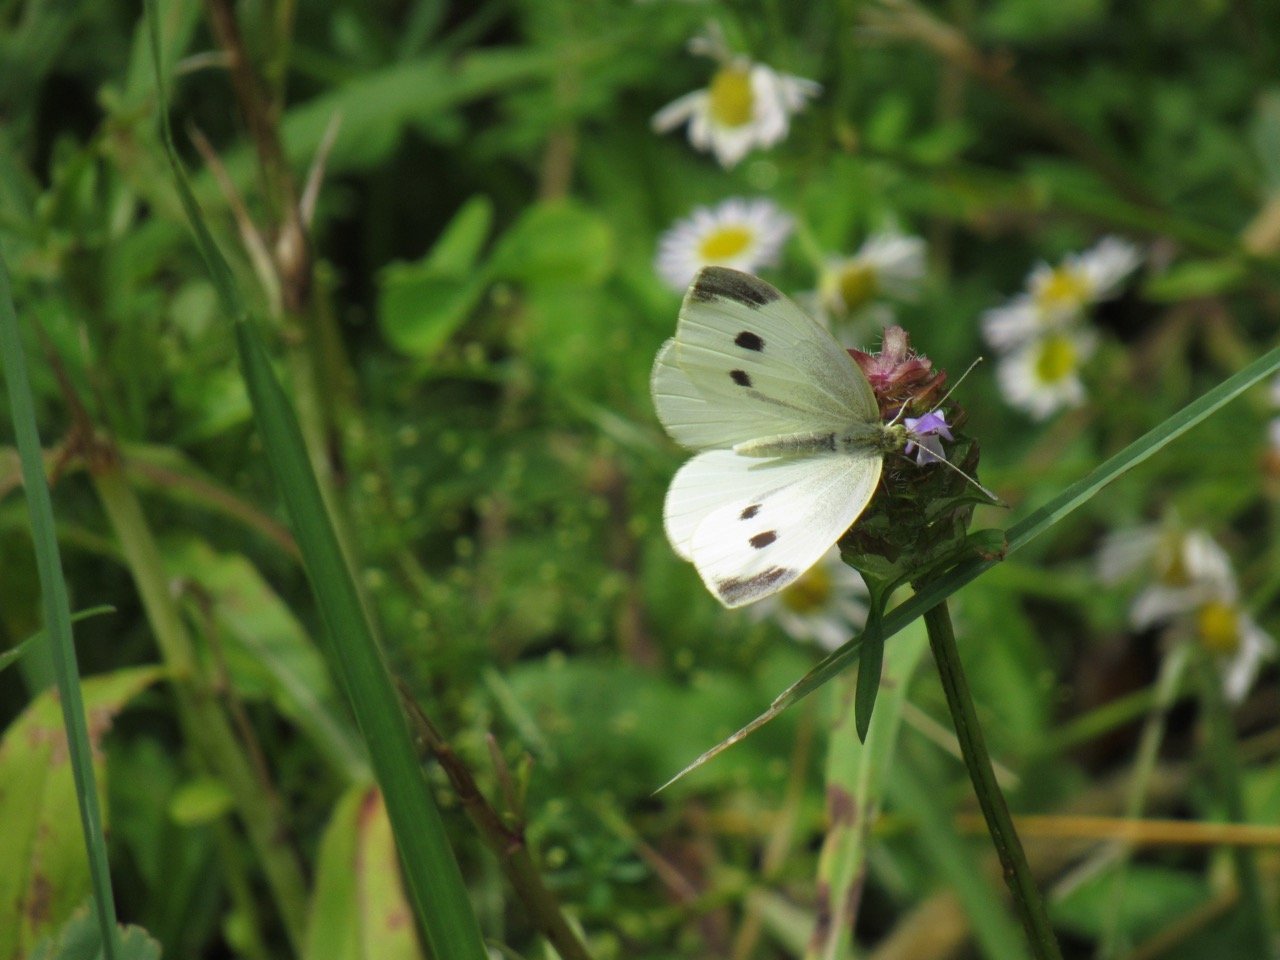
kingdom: Animalia
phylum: Arthropoda
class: Insecta
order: Lepidoptera
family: Pieridae
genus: Pieris
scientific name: Pieris rapae
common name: Cabbage White
